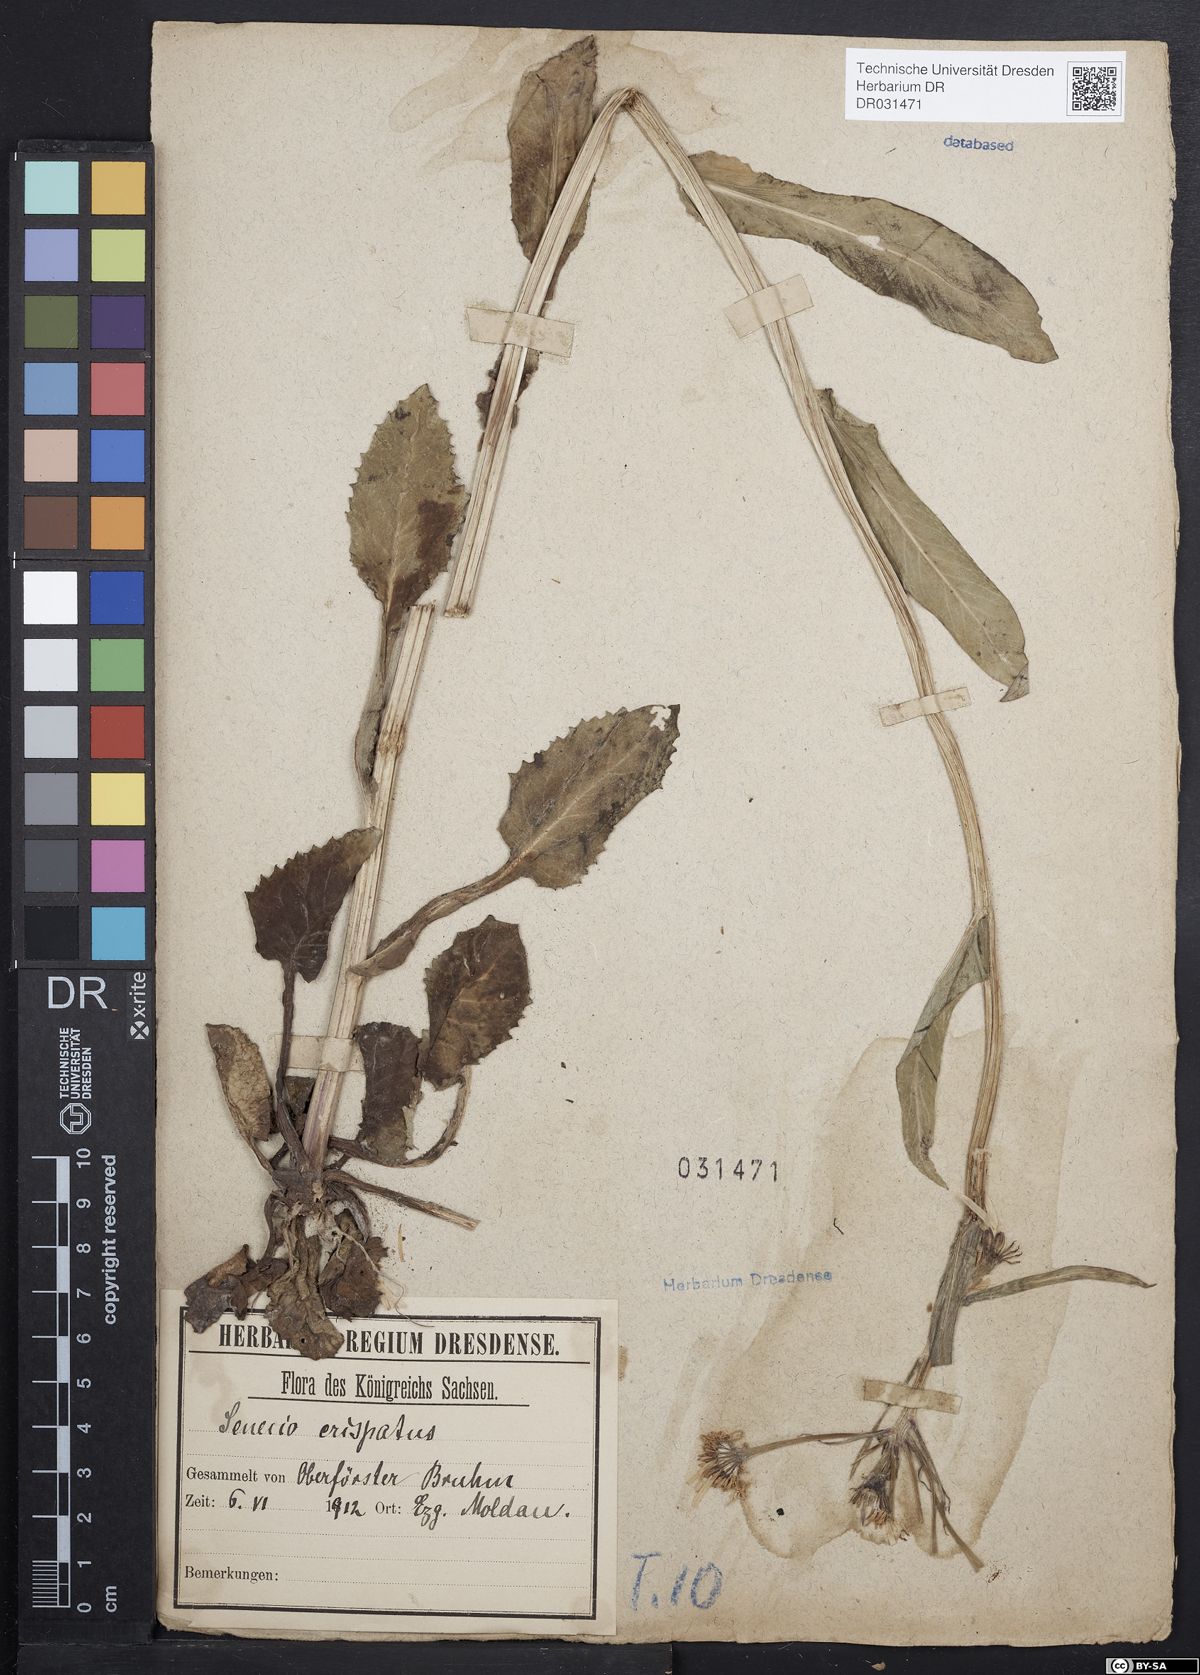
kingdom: Plantae
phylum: Tracheophyta
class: Magnoliopsida
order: Asterales
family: Asteraceae
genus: Tephroseris
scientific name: Tephroseris crispa
